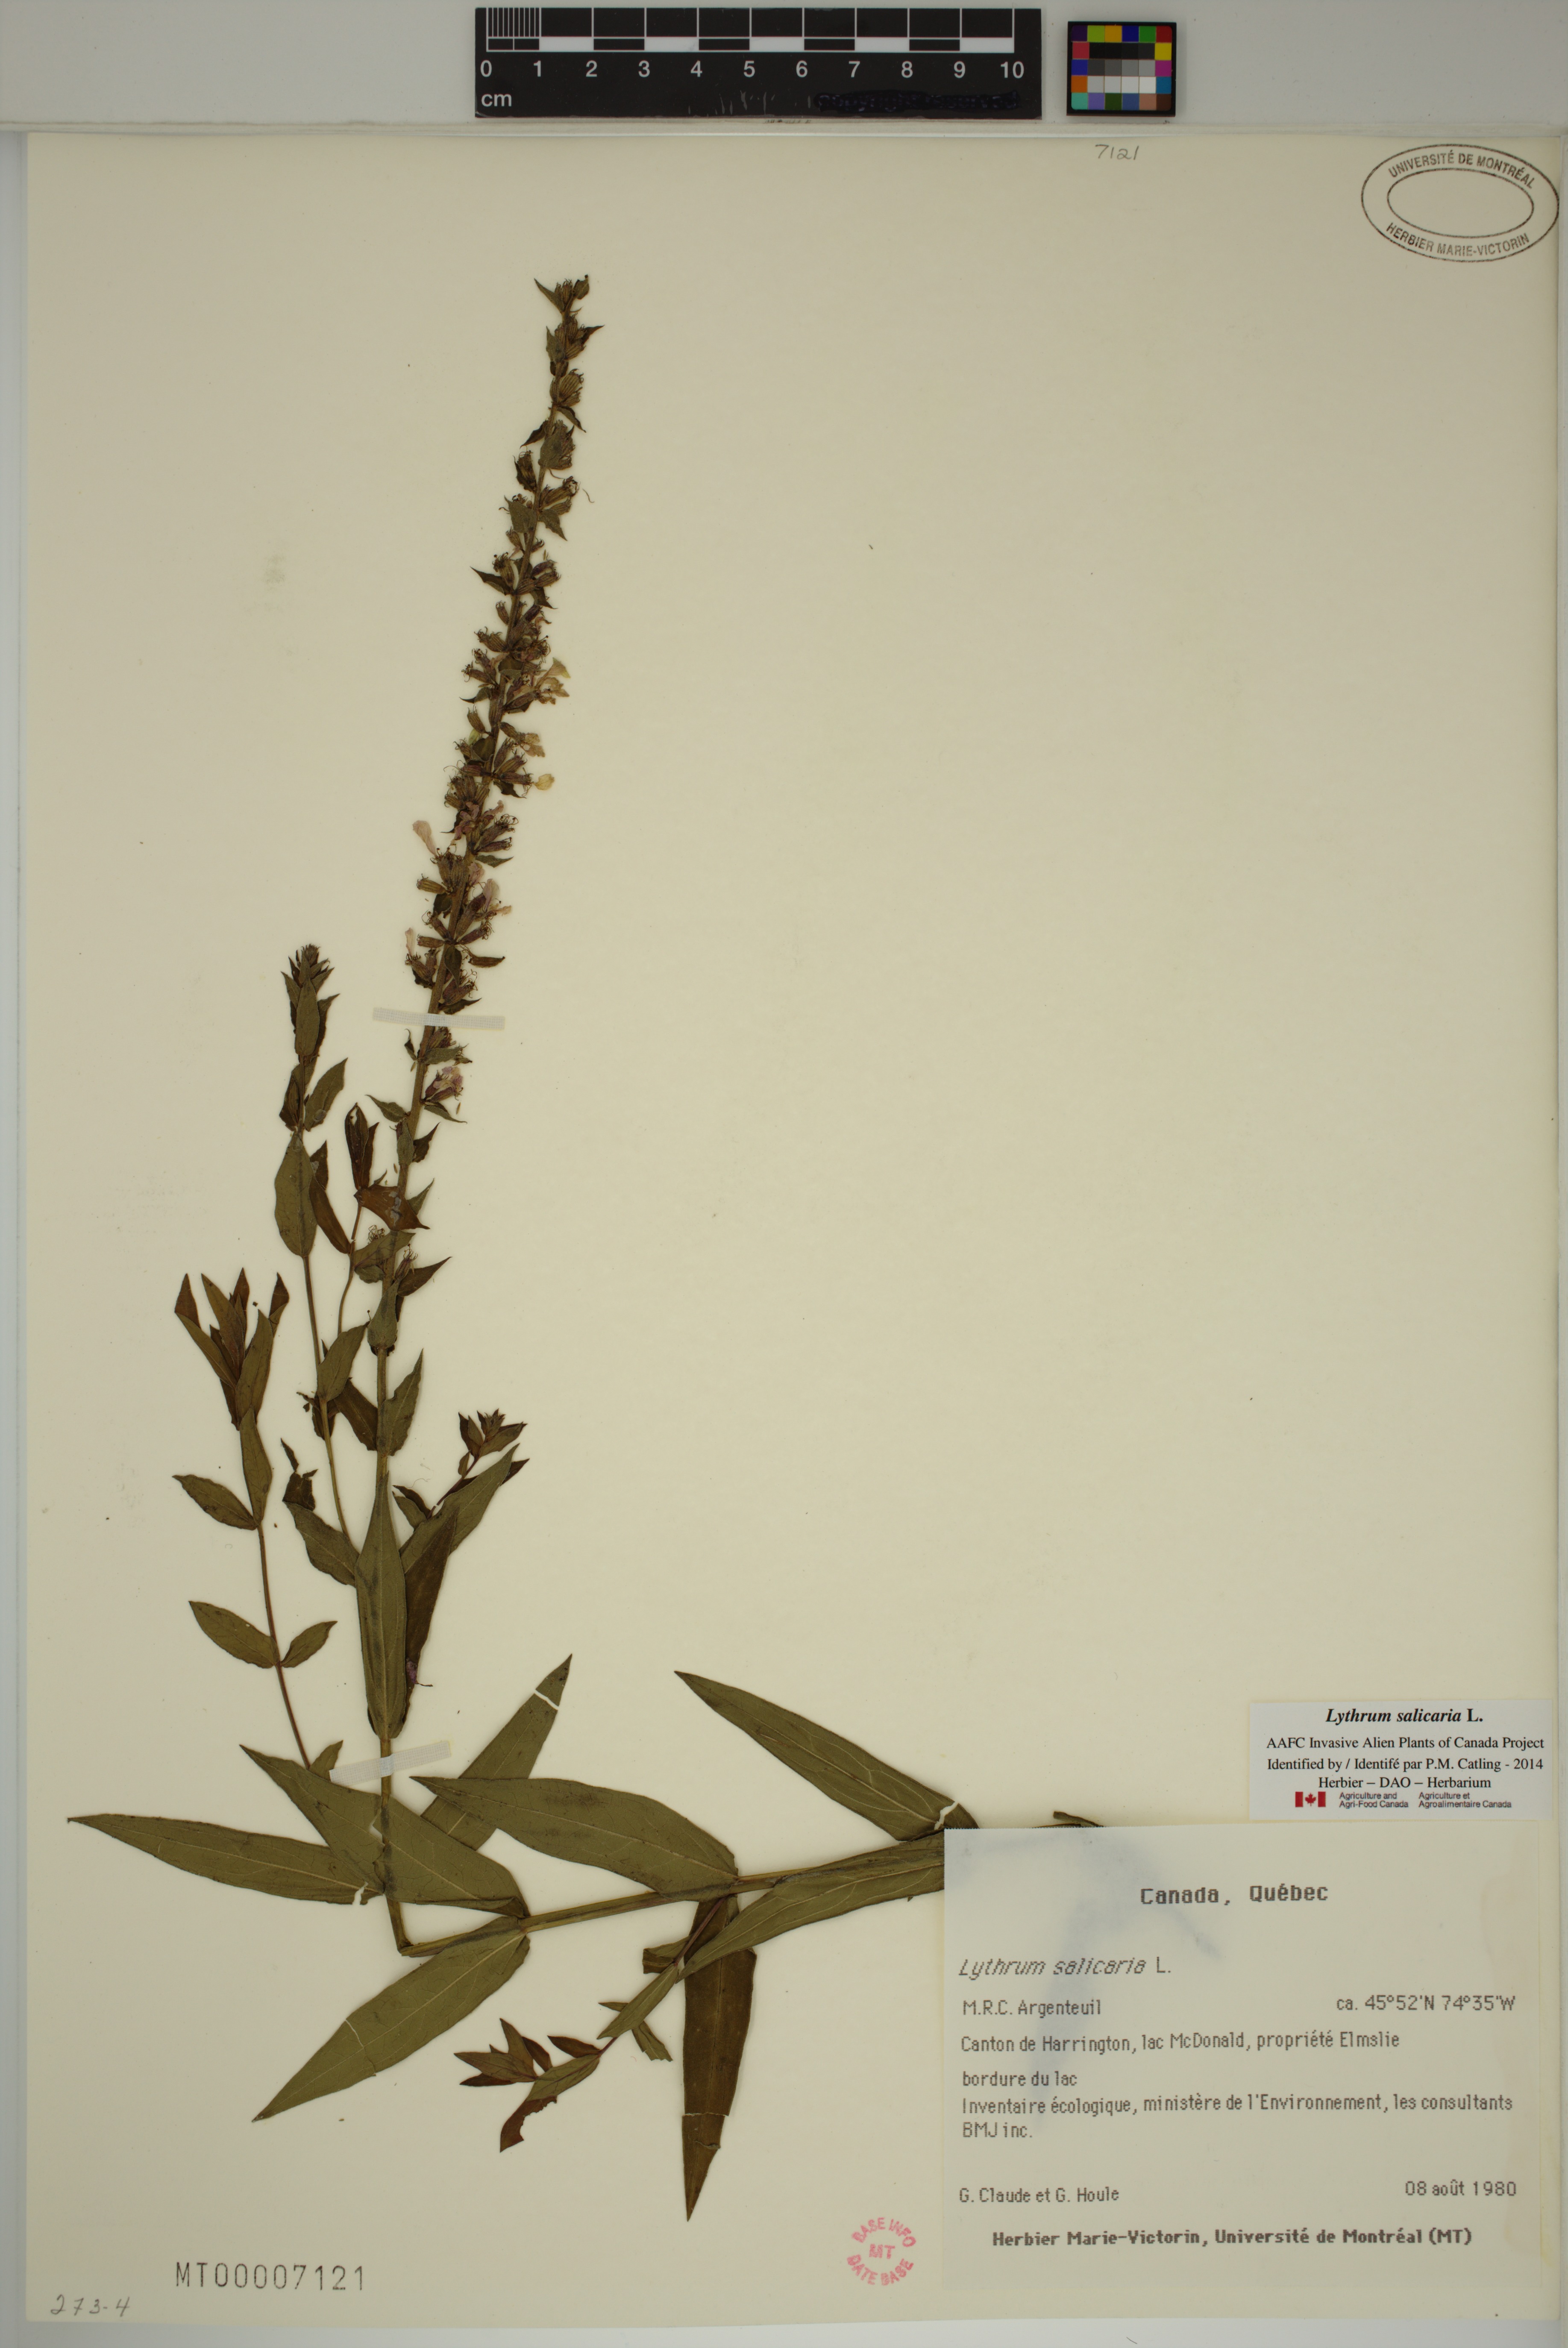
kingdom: Plantae
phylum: Tracheophyta
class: Magnoliopsida
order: Myrtales
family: Lythraceae
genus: Lythrum
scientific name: Lythrum salicaria
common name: Purple loosestrife
